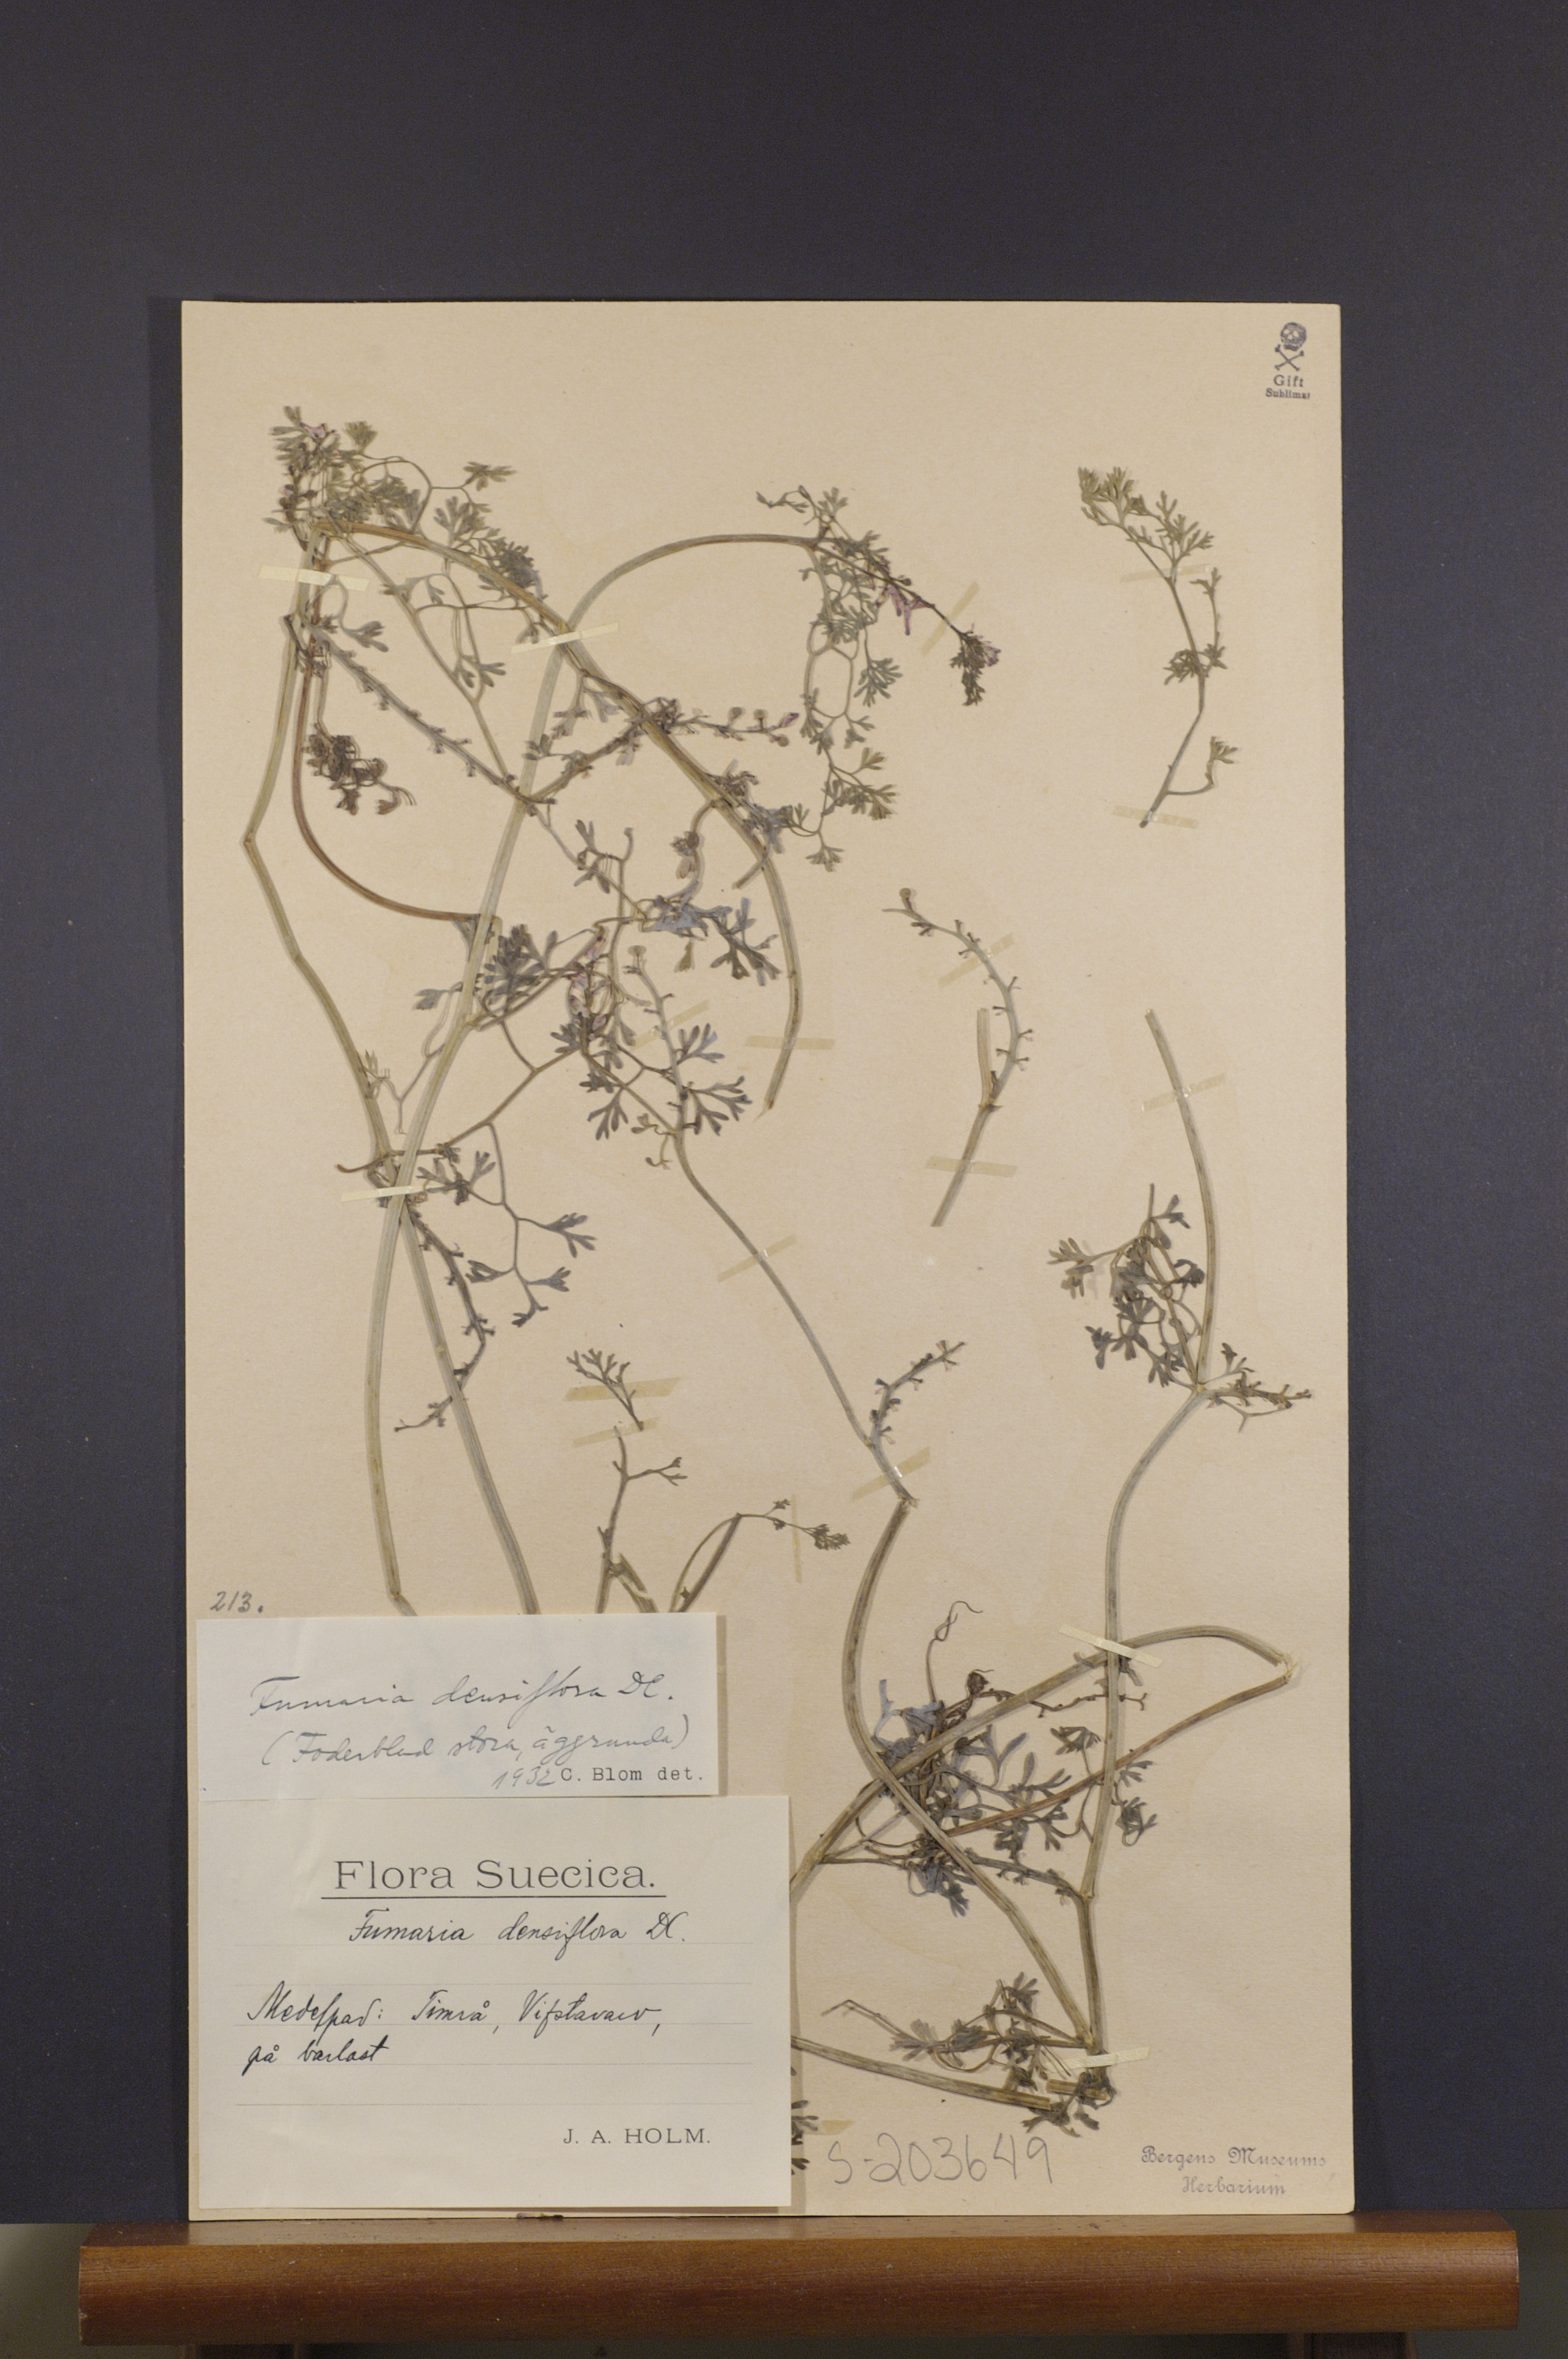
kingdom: Plantae
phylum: Tracheophyta
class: Magnoliopsida
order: Ranunculales
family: Papaveraceae
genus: Fumaria
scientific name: Fumaria densiflora
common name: Dense-flowered fumitory
